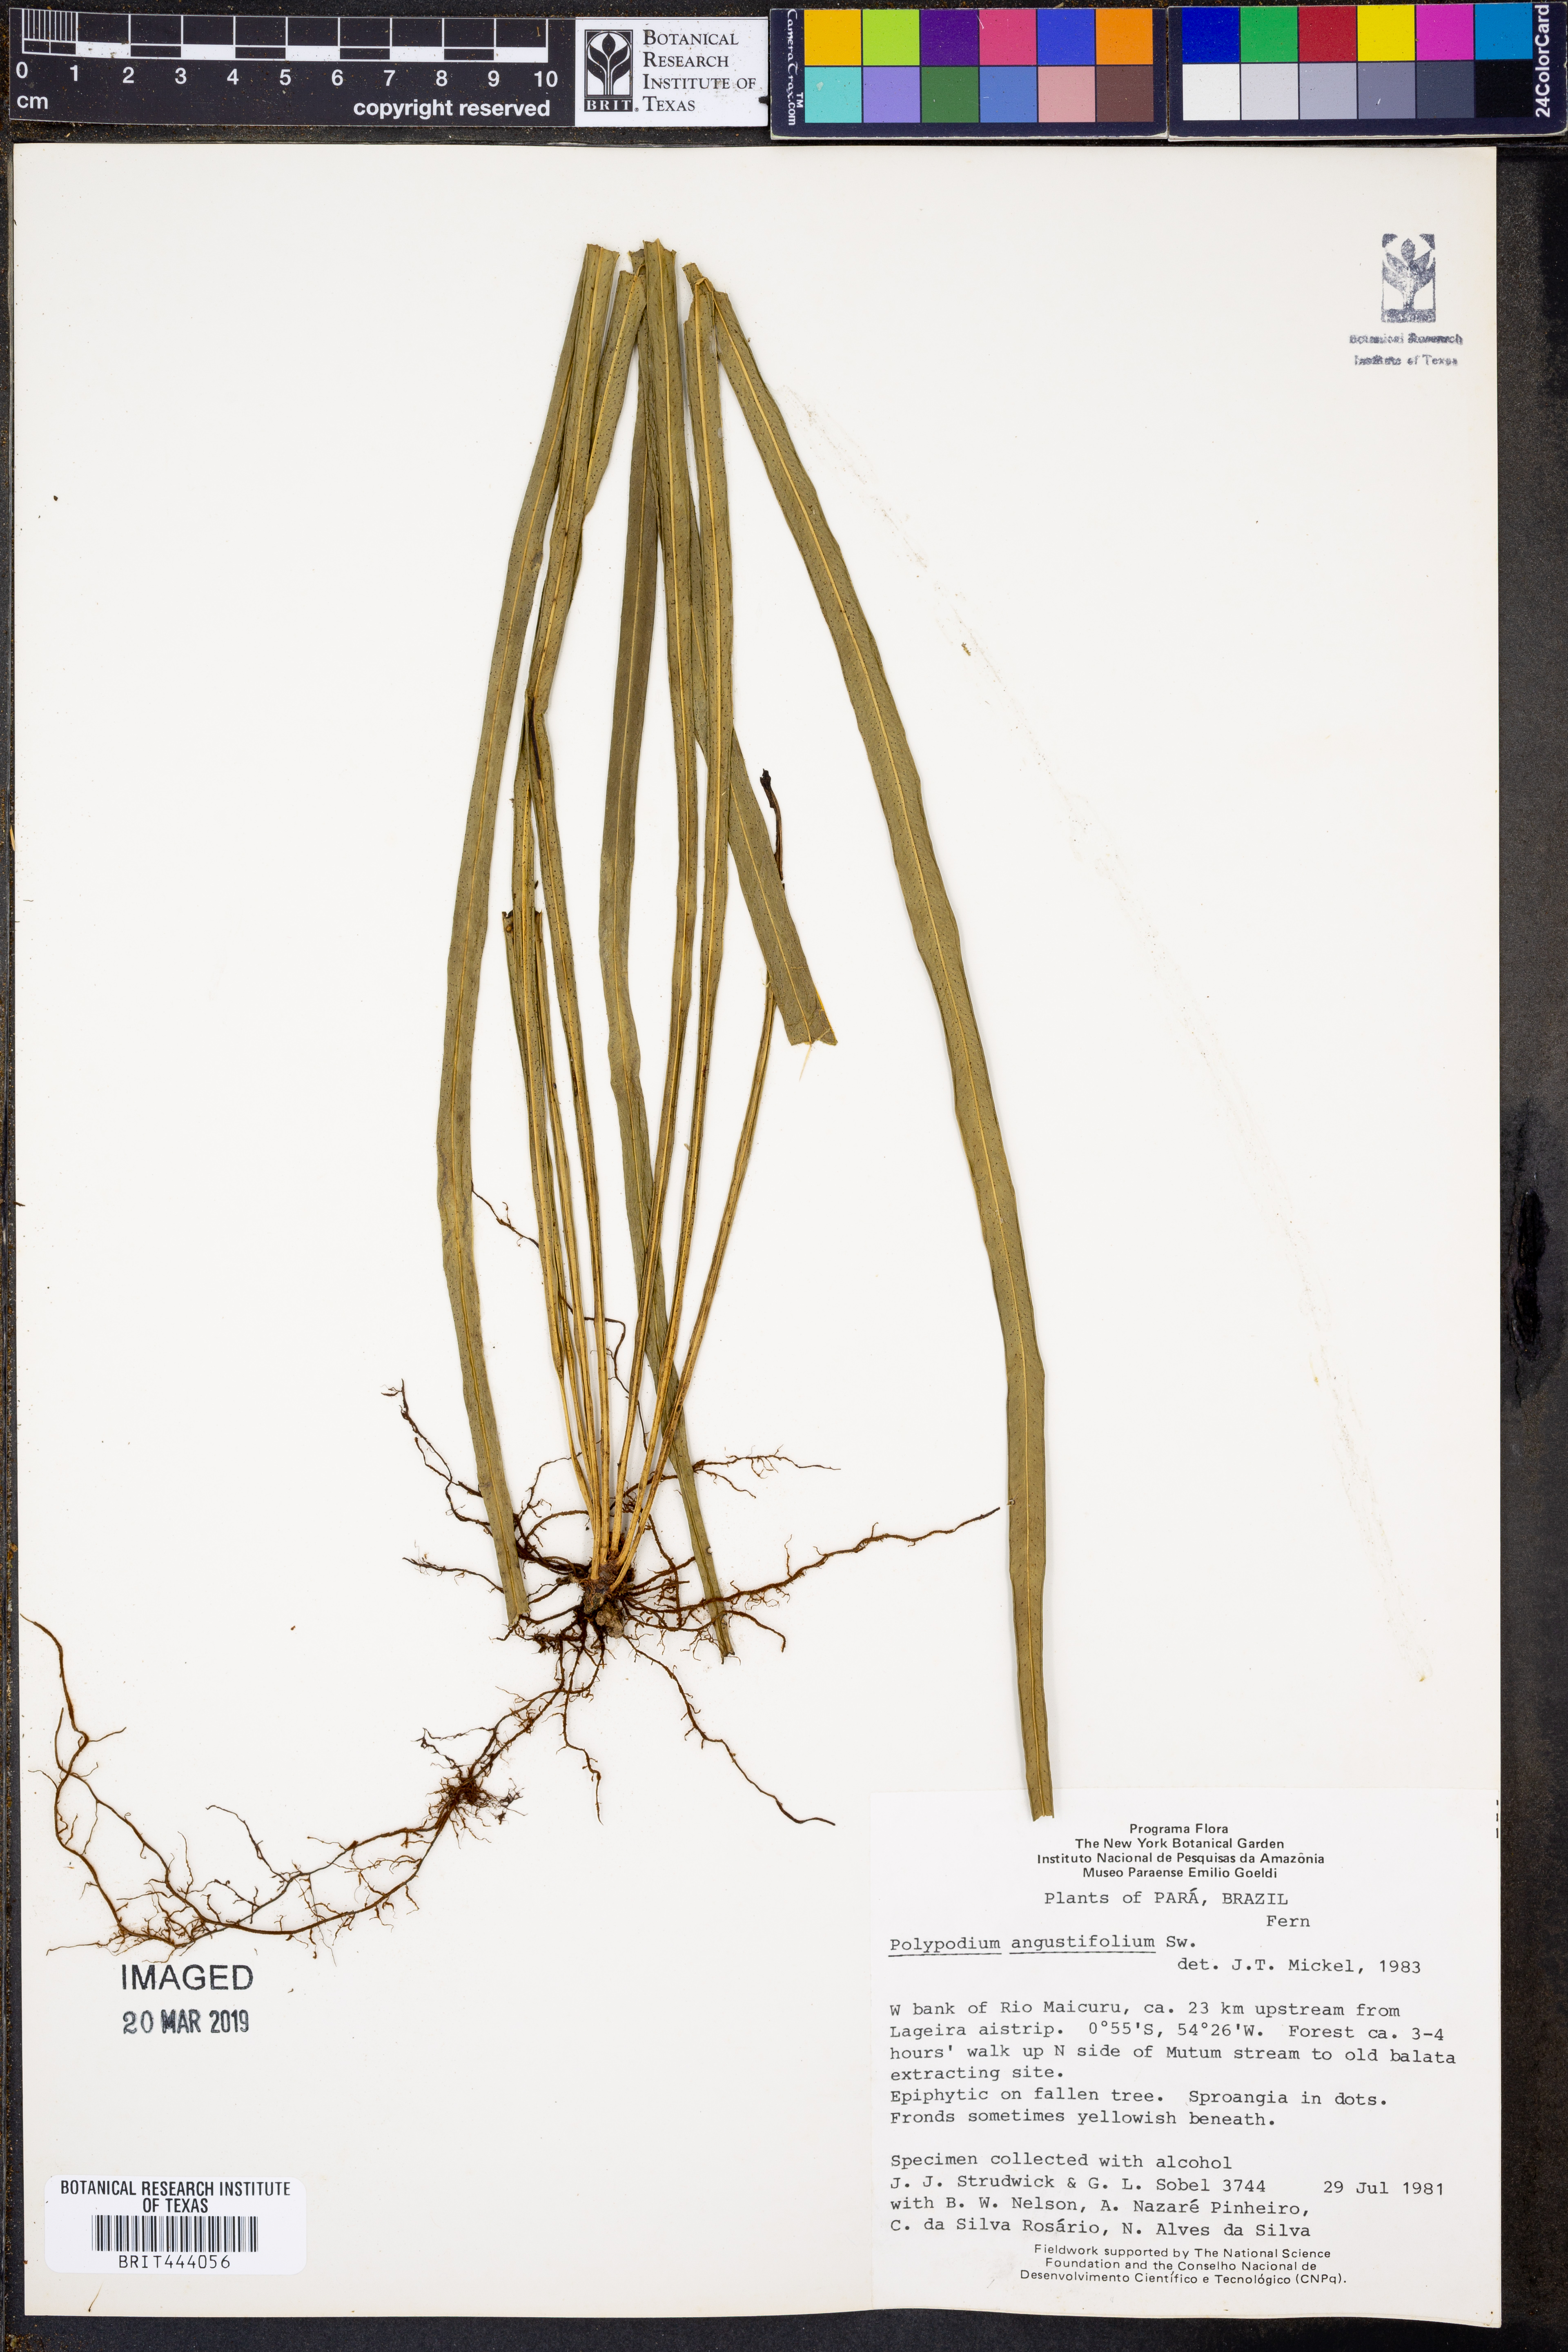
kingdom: Plantae
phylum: Tracheophyta
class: Polypodiopsida
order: Polypodiales
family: Polypodiaceae
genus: Campyloneurum
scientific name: Campyloneurum angustifolium
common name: Narrow-leaf strap fern
